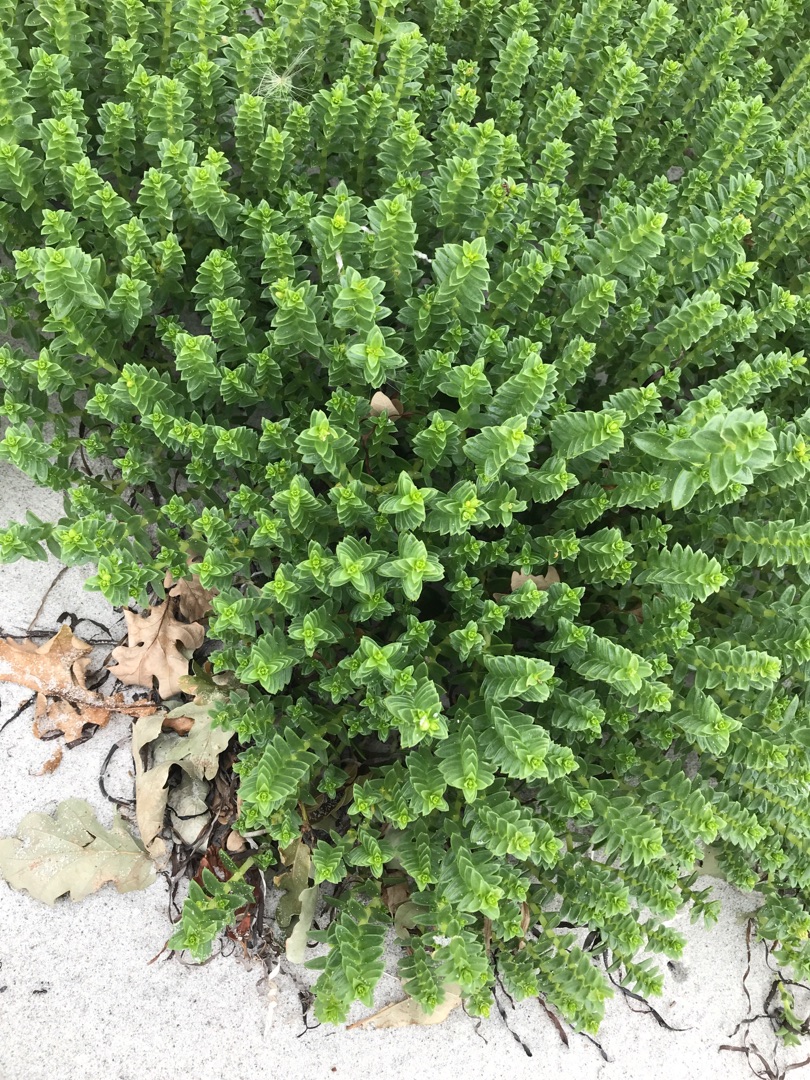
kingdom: Plantae
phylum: Tracheophyta
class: Magnoliopsida
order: Caryophyllales
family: Caryophyllaceae
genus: Honckenya
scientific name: Honckenya peploides
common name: Strandarve
